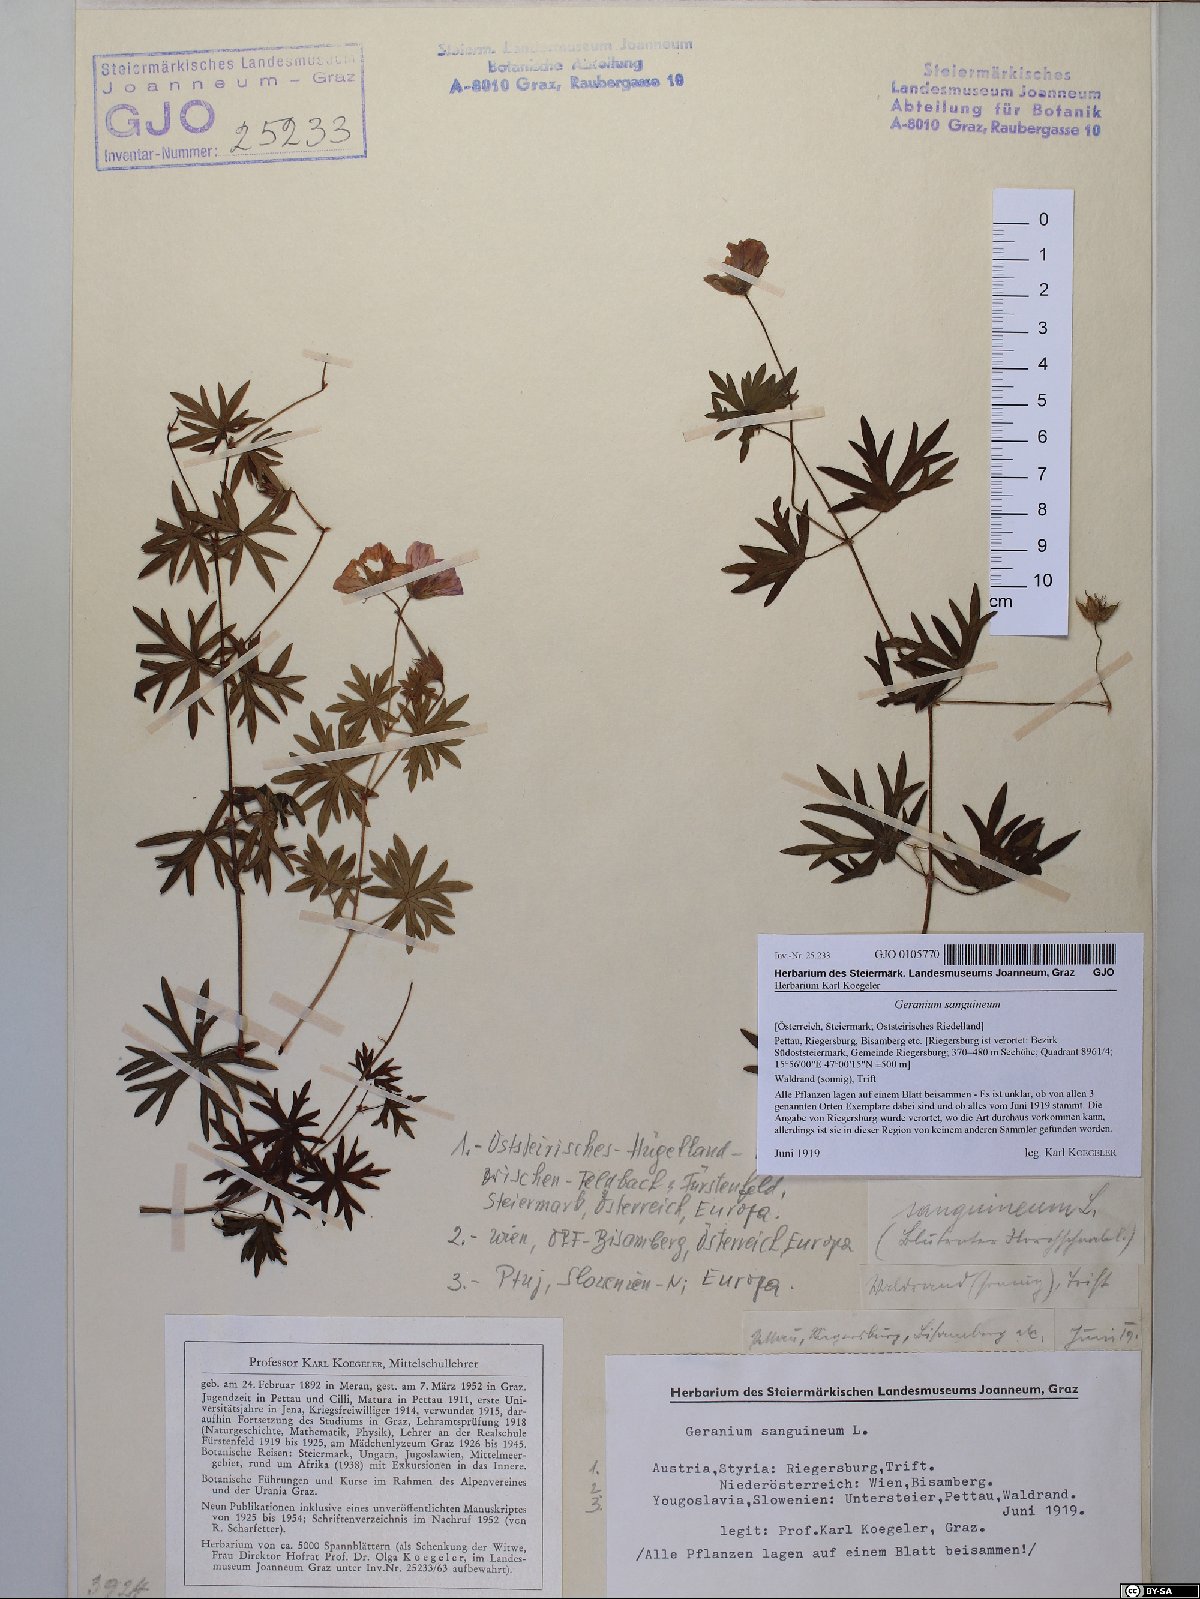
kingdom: Plantae
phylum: Tracheophyta
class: Magnoliopsida
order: Geraniales
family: Geraniaceae
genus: Geranium
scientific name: Geranium sanguineum
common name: Bloody crane's-bill
